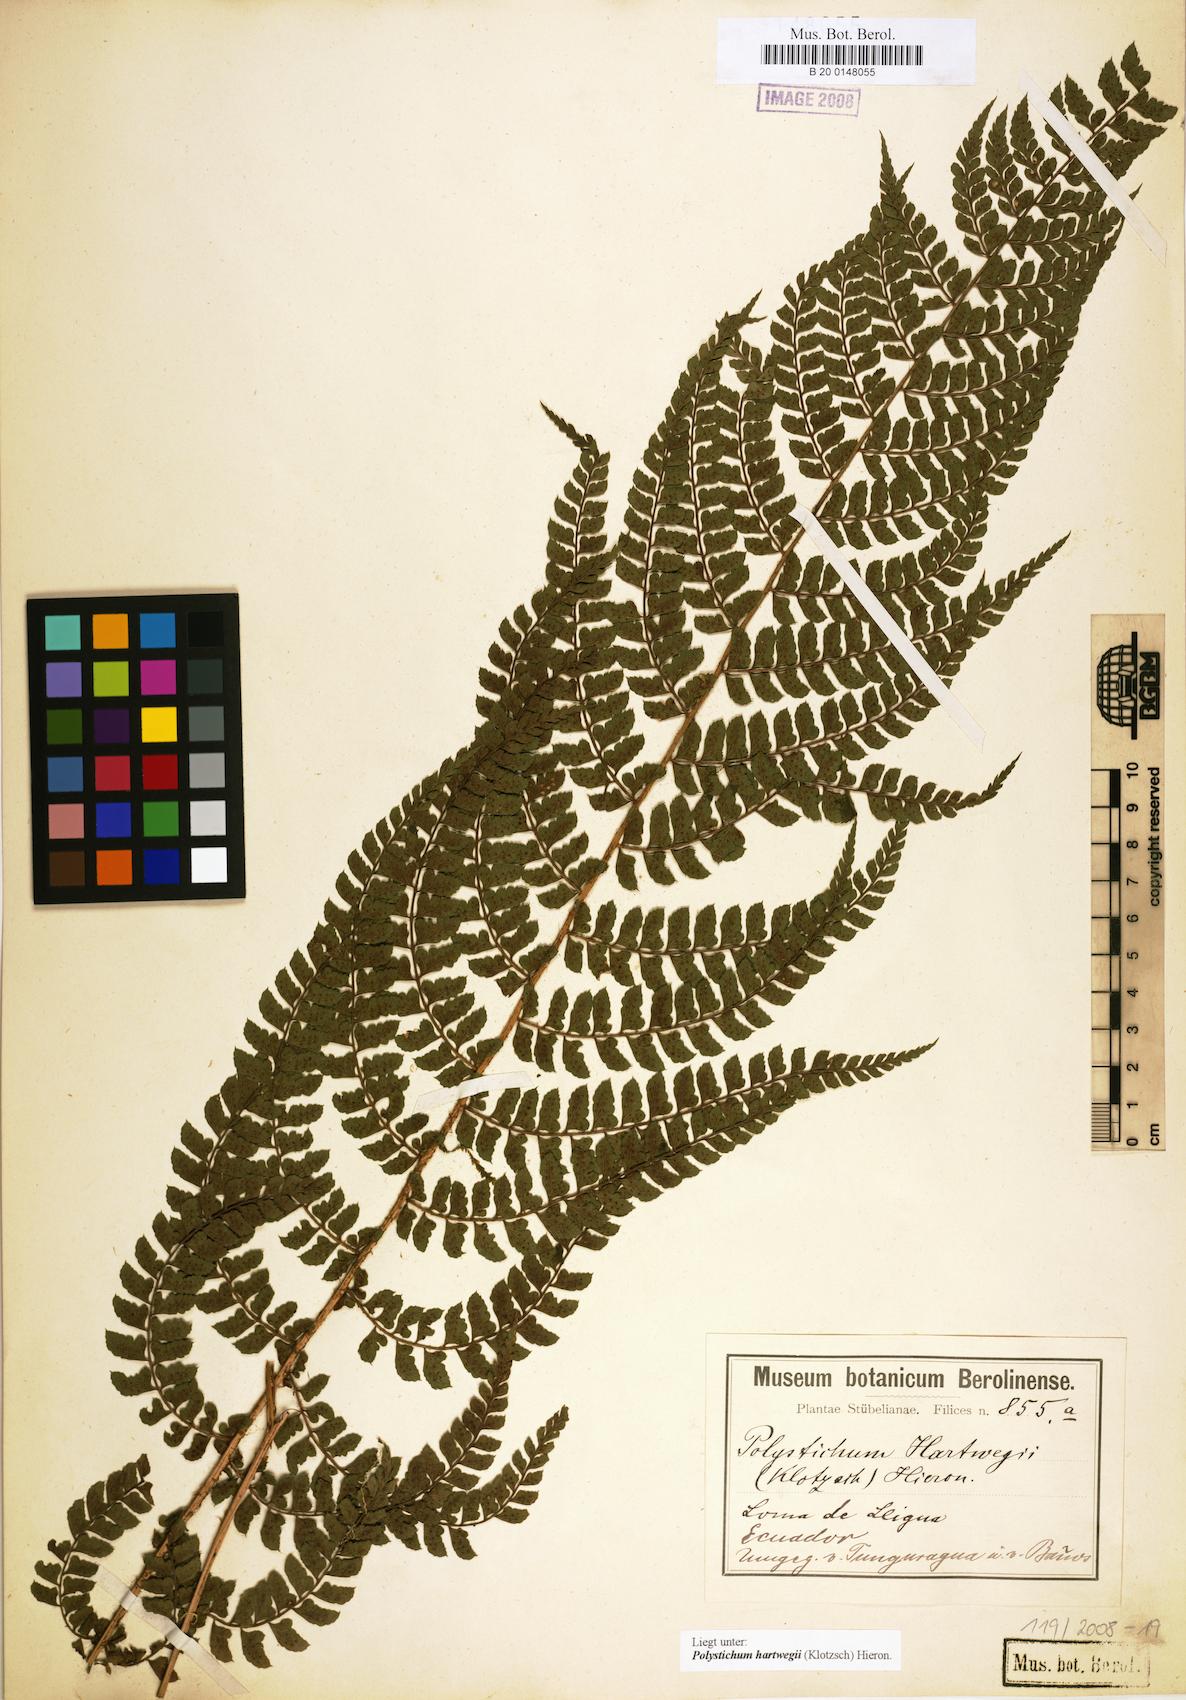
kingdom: Plantae
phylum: Tracheophyta
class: Polypodiopsida
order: Polypodiales
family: Dryopteridaceae
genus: Polystichum
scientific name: Polystichum hartwegii
